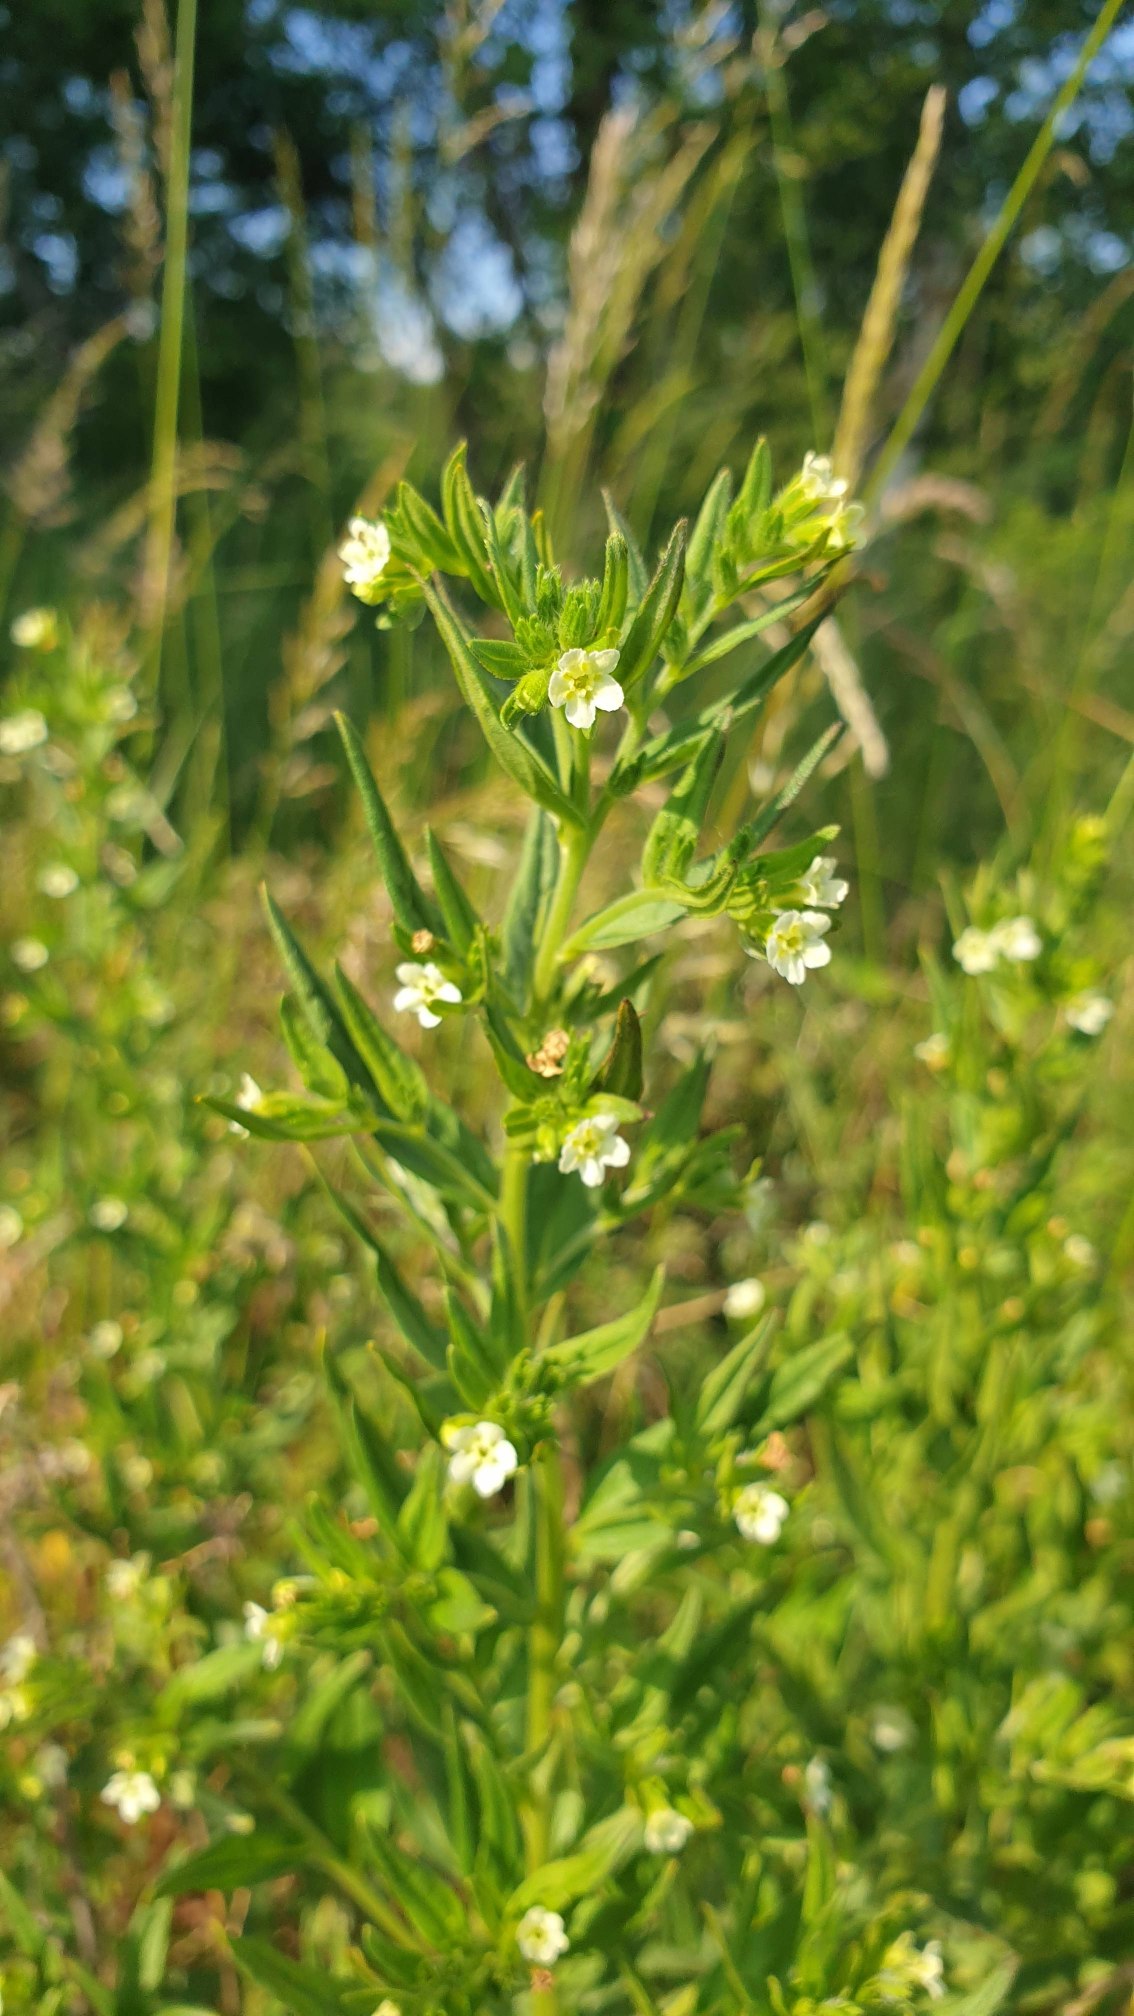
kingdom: Plantae
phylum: Tracheophyta
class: Magnoliopsida
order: Boraginales
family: Boraginaceae
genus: Lithospermum
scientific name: Lithospermum officinale
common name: Læge-stenfrø
